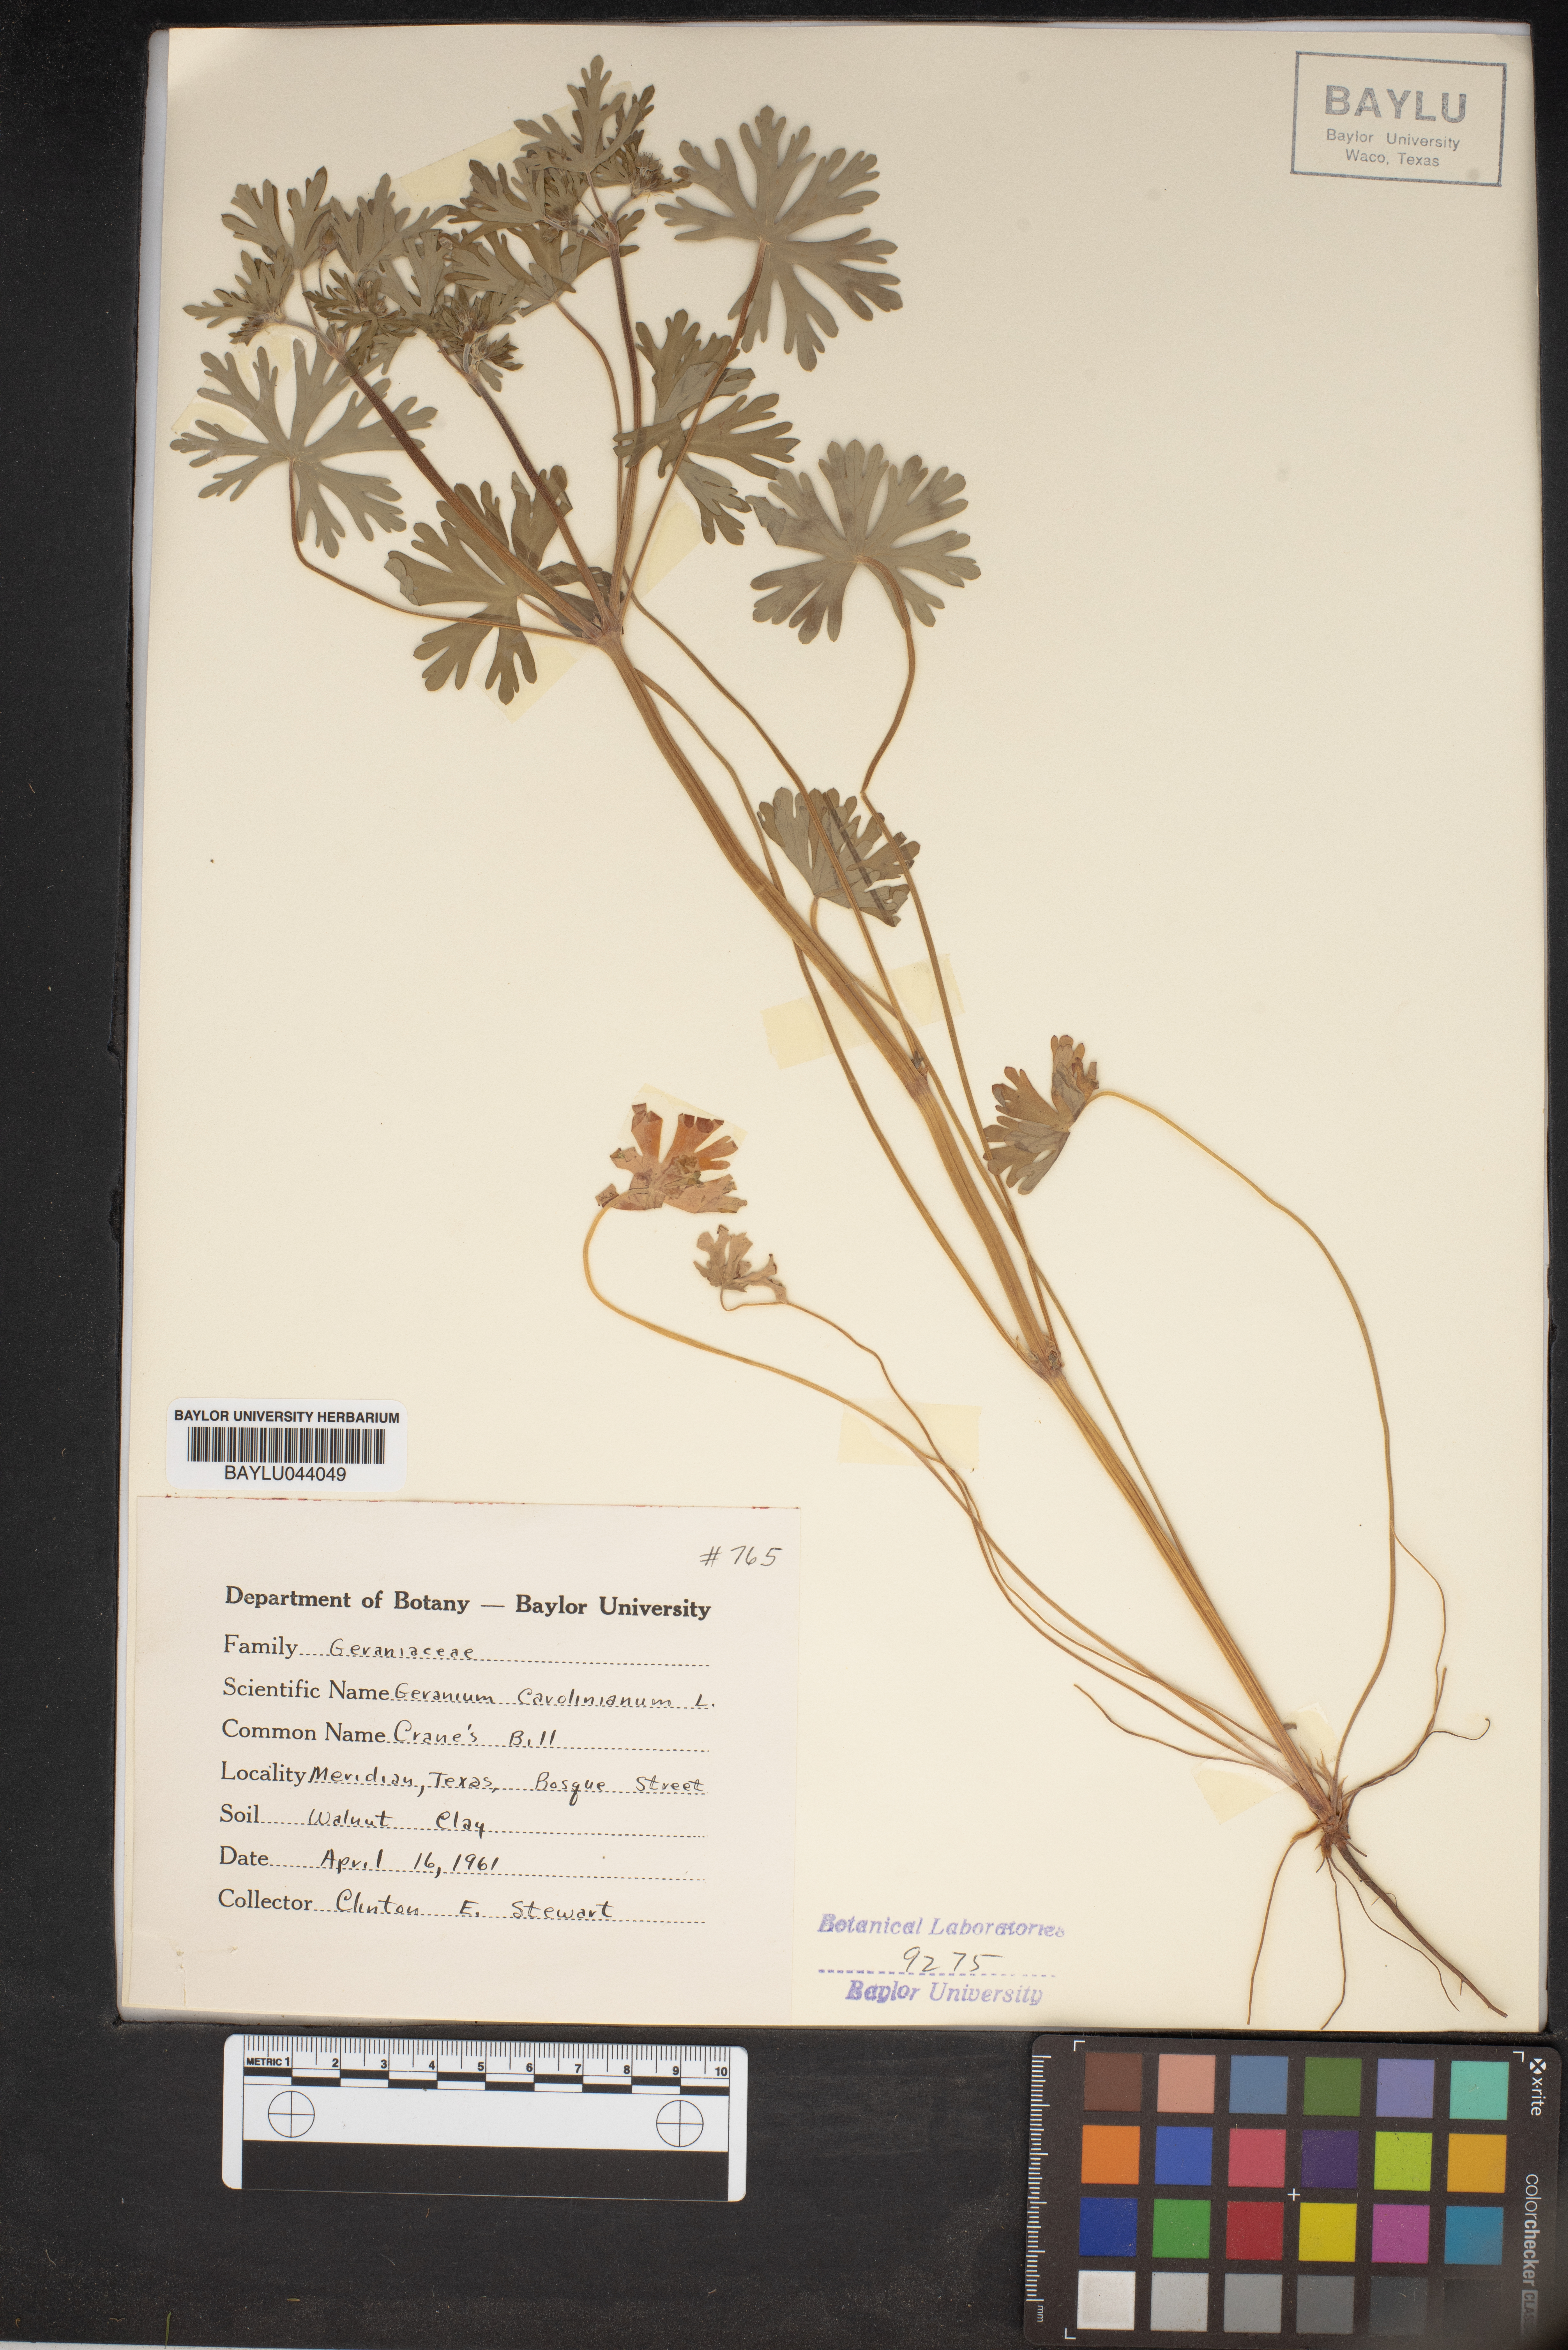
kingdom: Plantae
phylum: Tracheophyta
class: Magnoliopsida
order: Geraniales
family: Geraniaceae
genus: Geranium
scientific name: Geranium carolinianum
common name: Carolina crane's-bill
